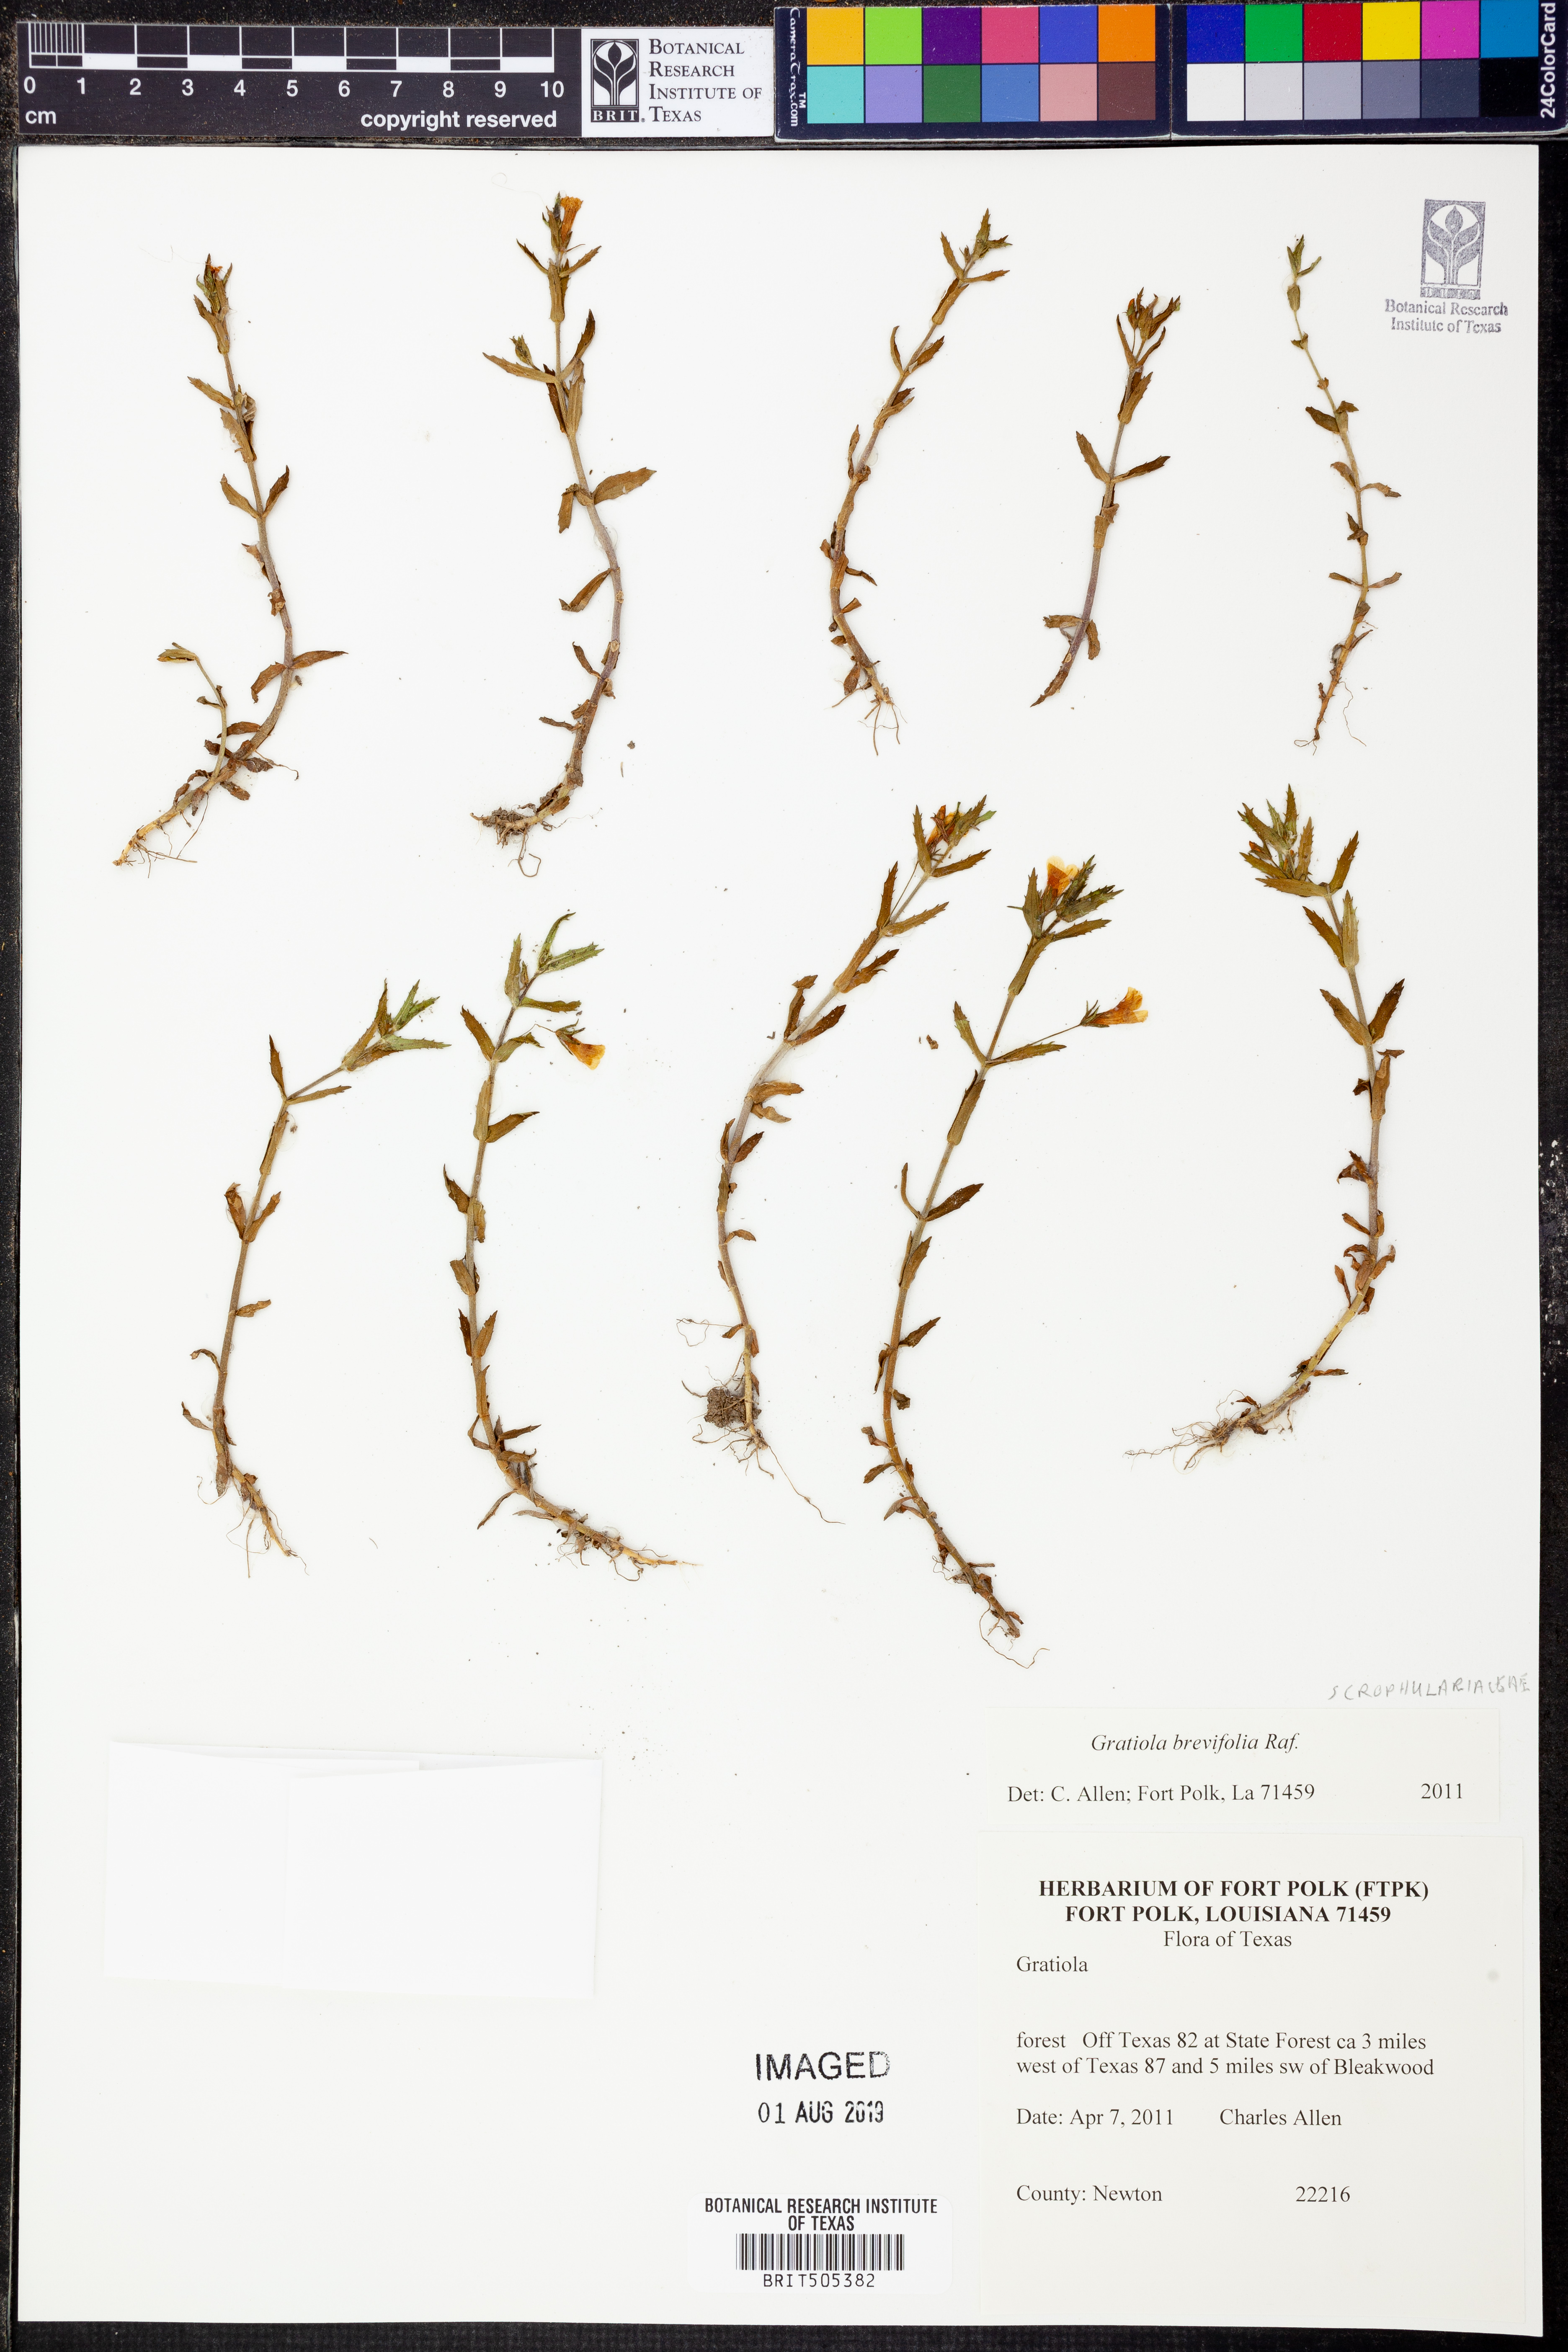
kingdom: Plantae
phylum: Tracheophyta
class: Magnoliopsida
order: Lamiales
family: Plantaginaceae
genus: Gratiola
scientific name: Gratiola brevifolia
